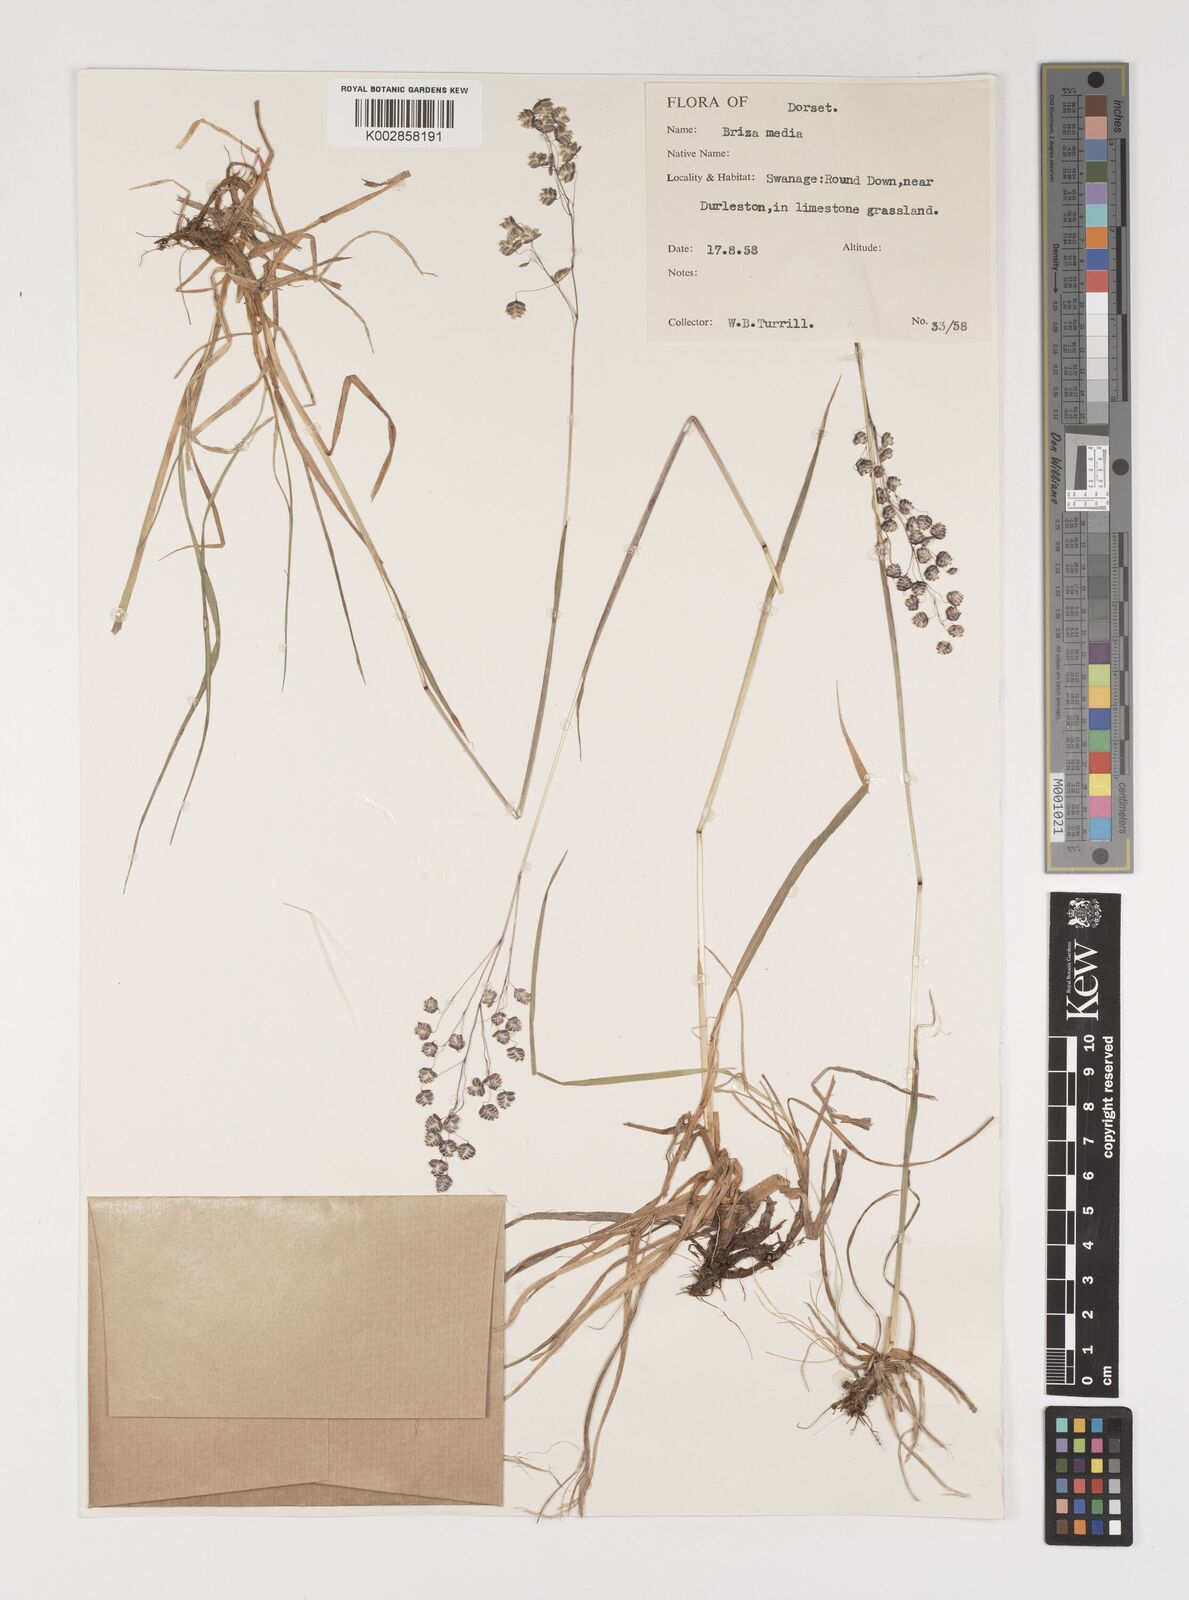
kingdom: Plantae
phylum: Tracheophyta
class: Liliopsida
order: Poales
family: Poaceae
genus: Briza
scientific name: Briza media
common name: Quaking grass
